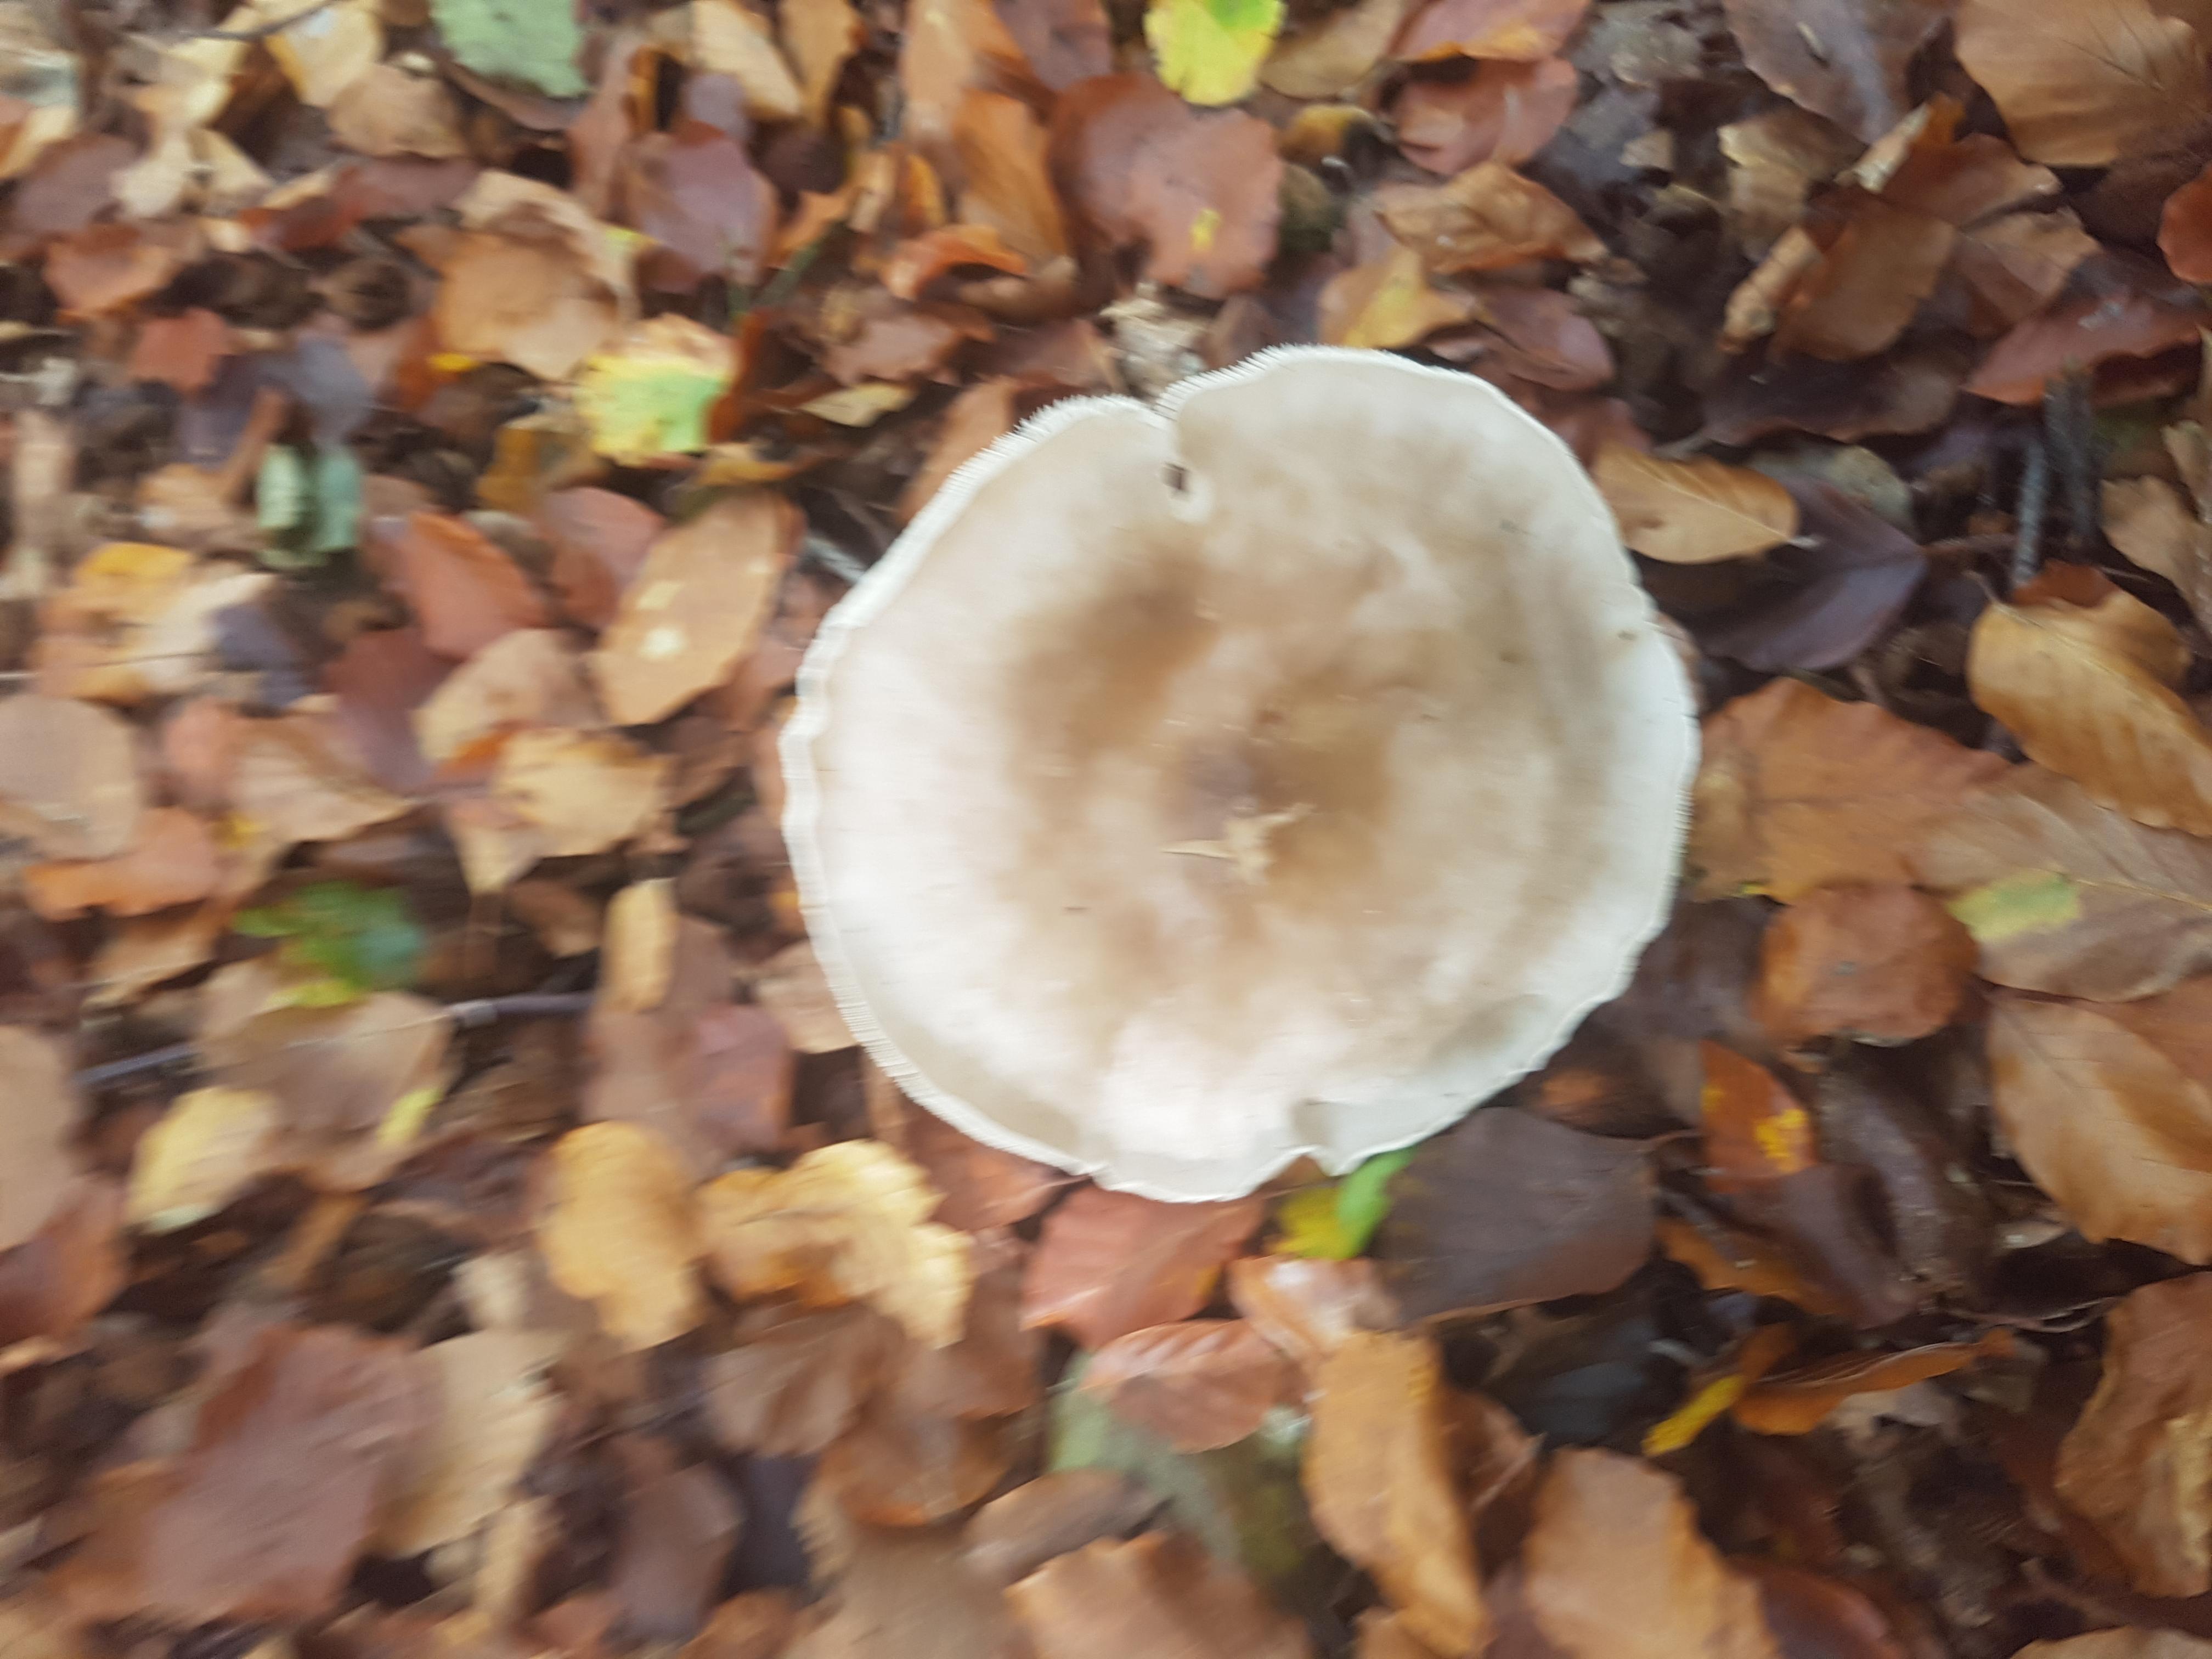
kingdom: Fungi
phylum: Basidiomycota
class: Agaricomycetes
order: Agaricales
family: Tricholomataceae
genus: Clitocybe
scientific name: Clitocybe nebularis
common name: tåge-tragthat
